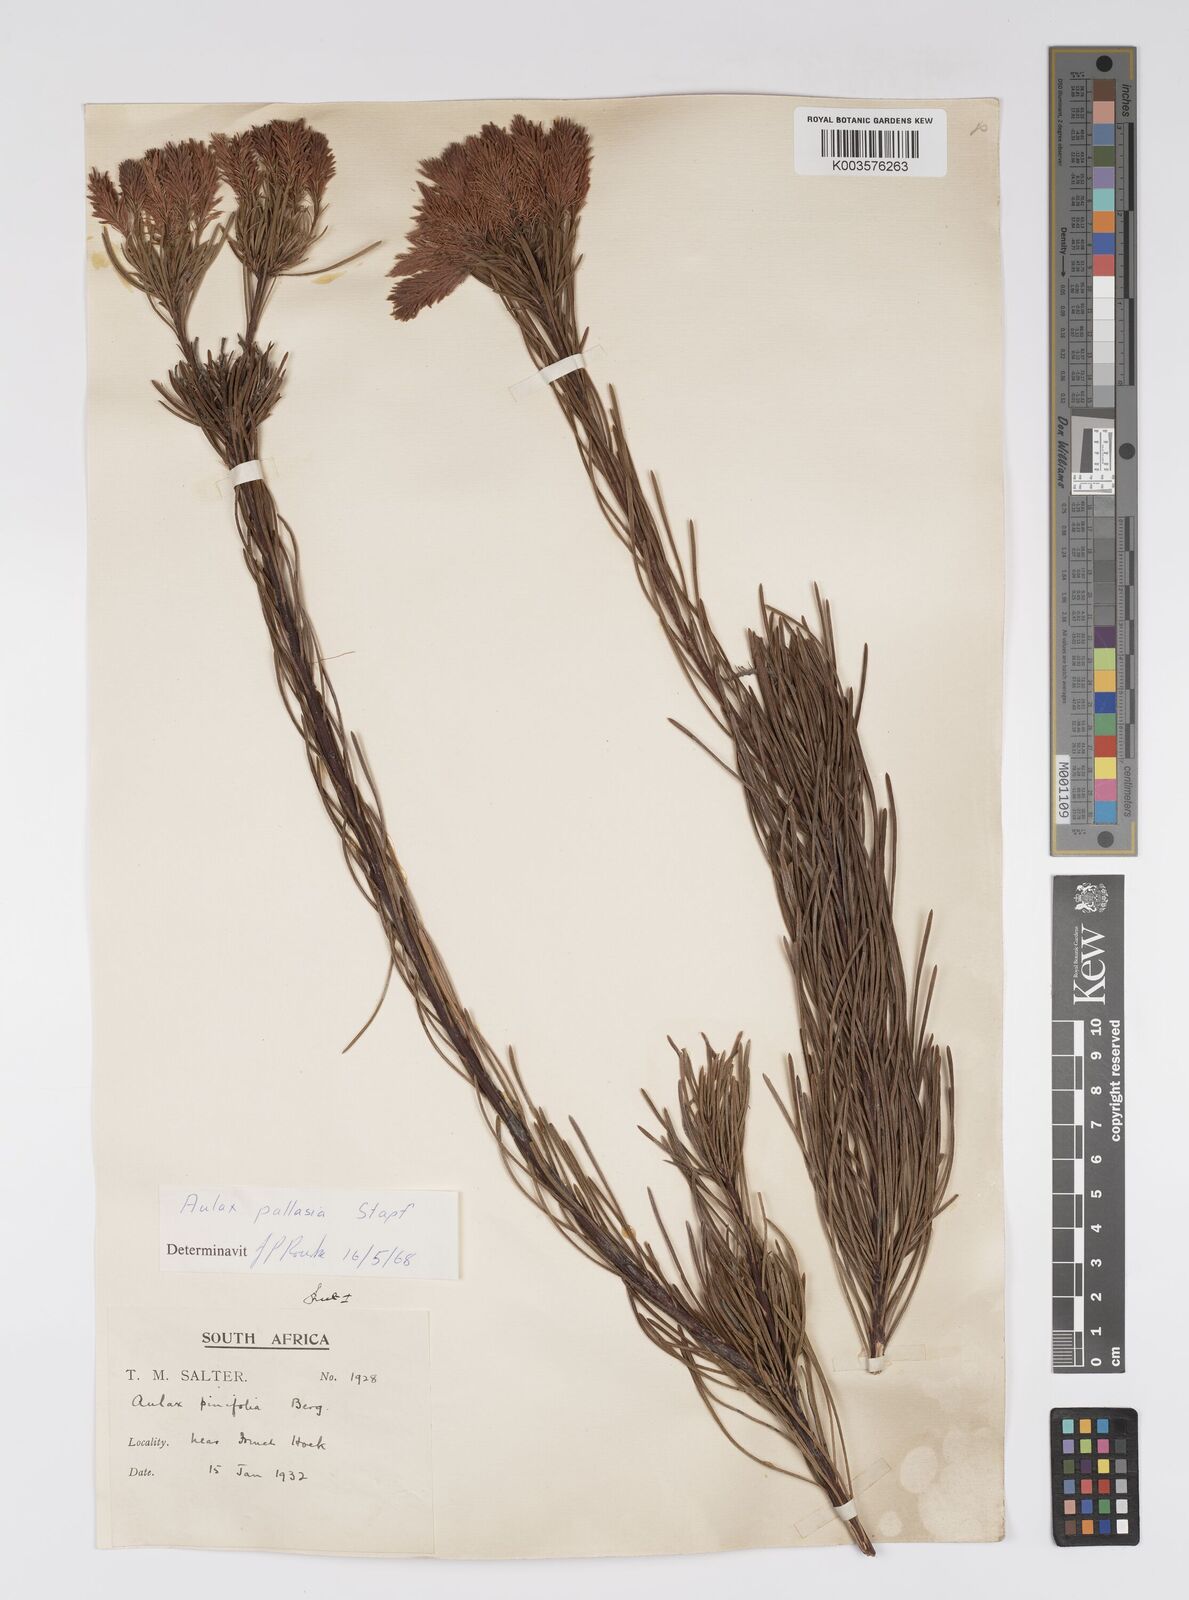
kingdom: Plantae
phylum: Tracheophyta
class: Magnoliopsida
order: Proteales
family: Proteaceae
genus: Aulax
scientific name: Aulax pallasia
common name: Needle-leaf featherbush
